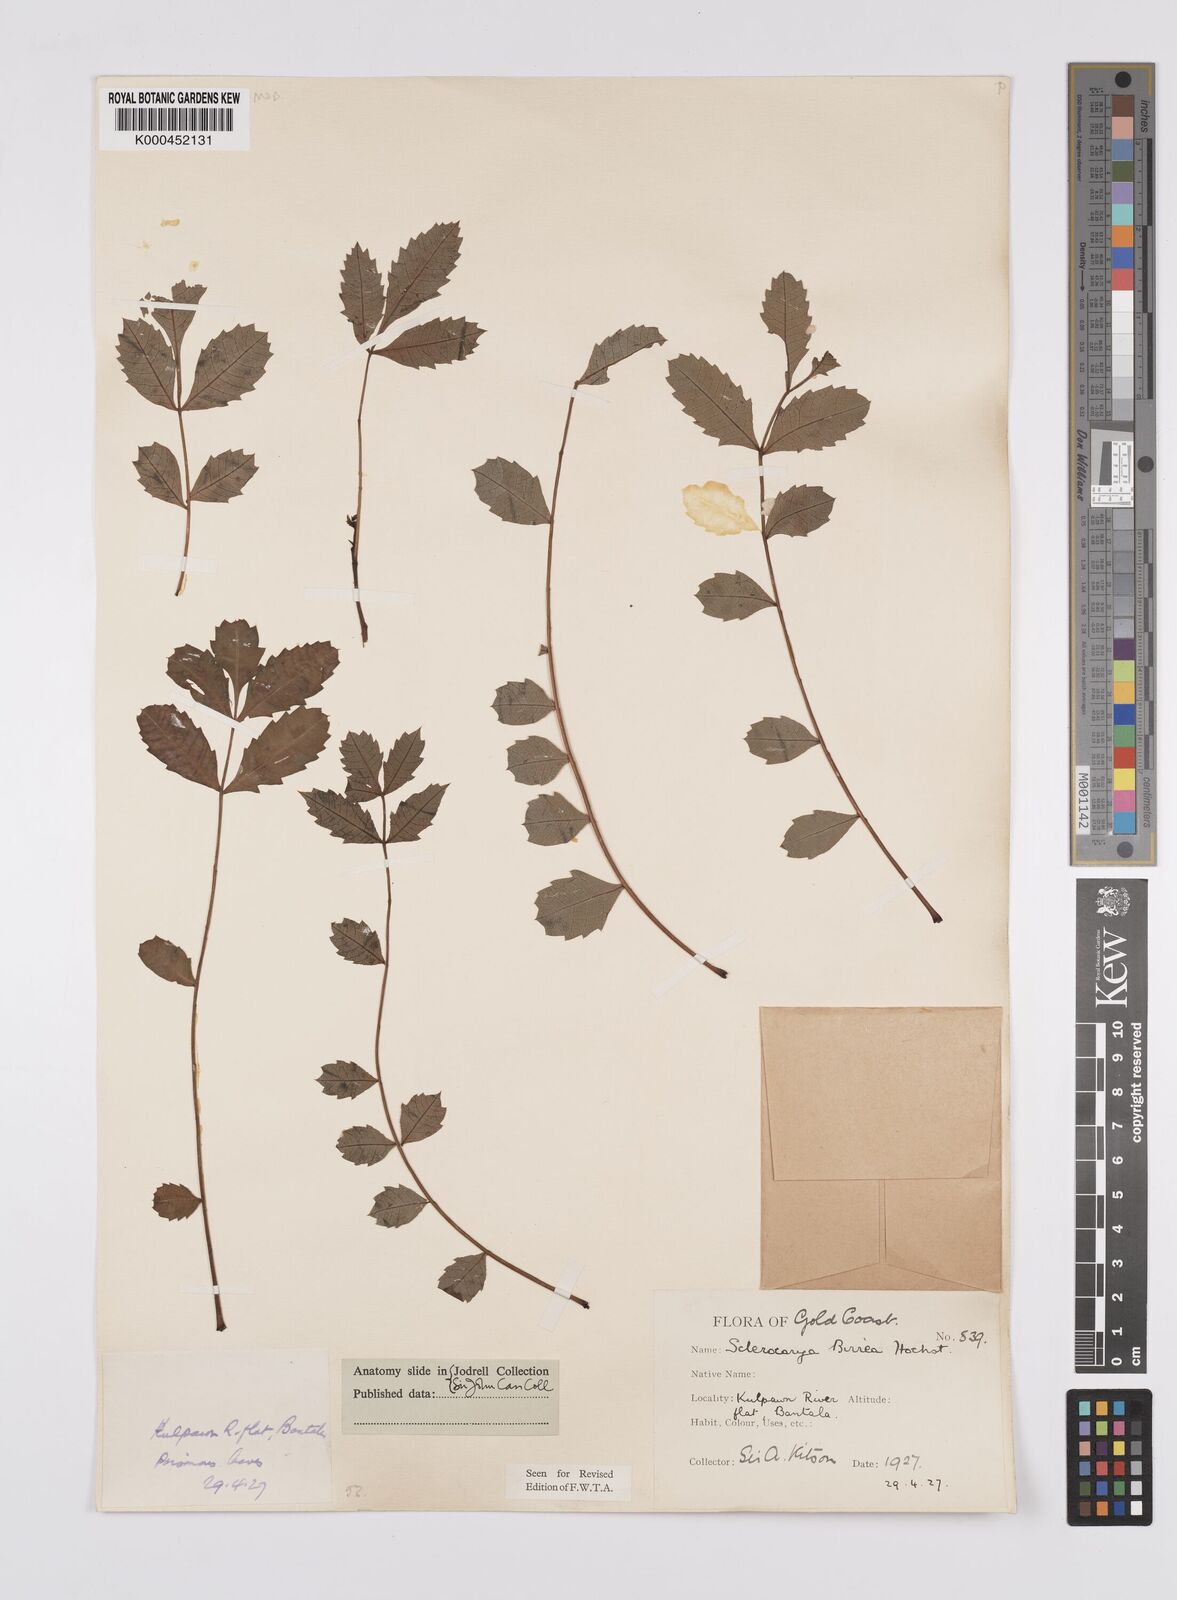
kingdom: Plantae
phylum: Tracheophyta
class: Magnoliopsida
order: Sapindales
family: Anacardiaceae
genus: Sclerocarya
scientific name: Sclerocarya birrea
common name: Marula
